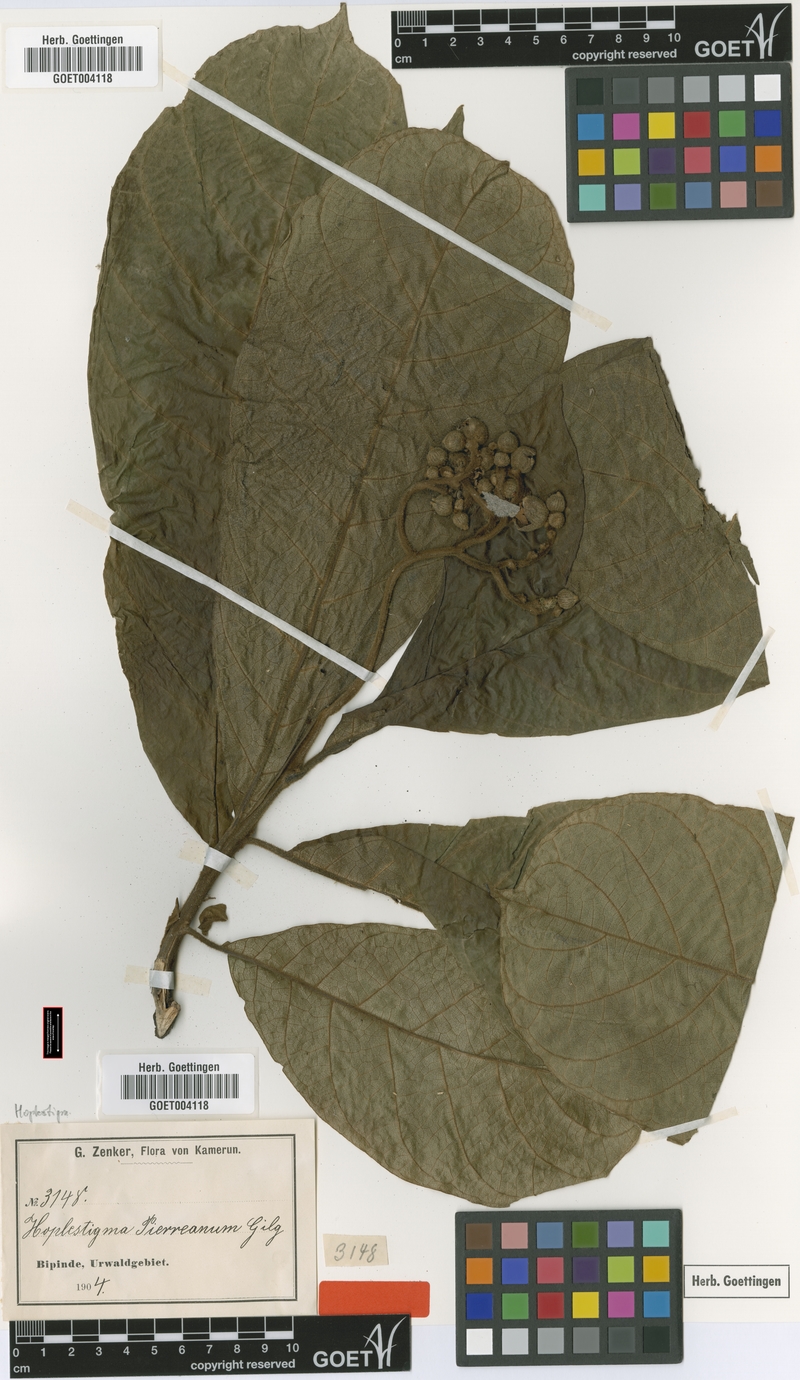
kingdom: Plantae
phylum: Tracheophyta
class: Magnoliopsida
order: Boraginales
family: Hoplestigmataceae
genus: Hoplestigma
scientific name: Hoplestigma pierreanum
